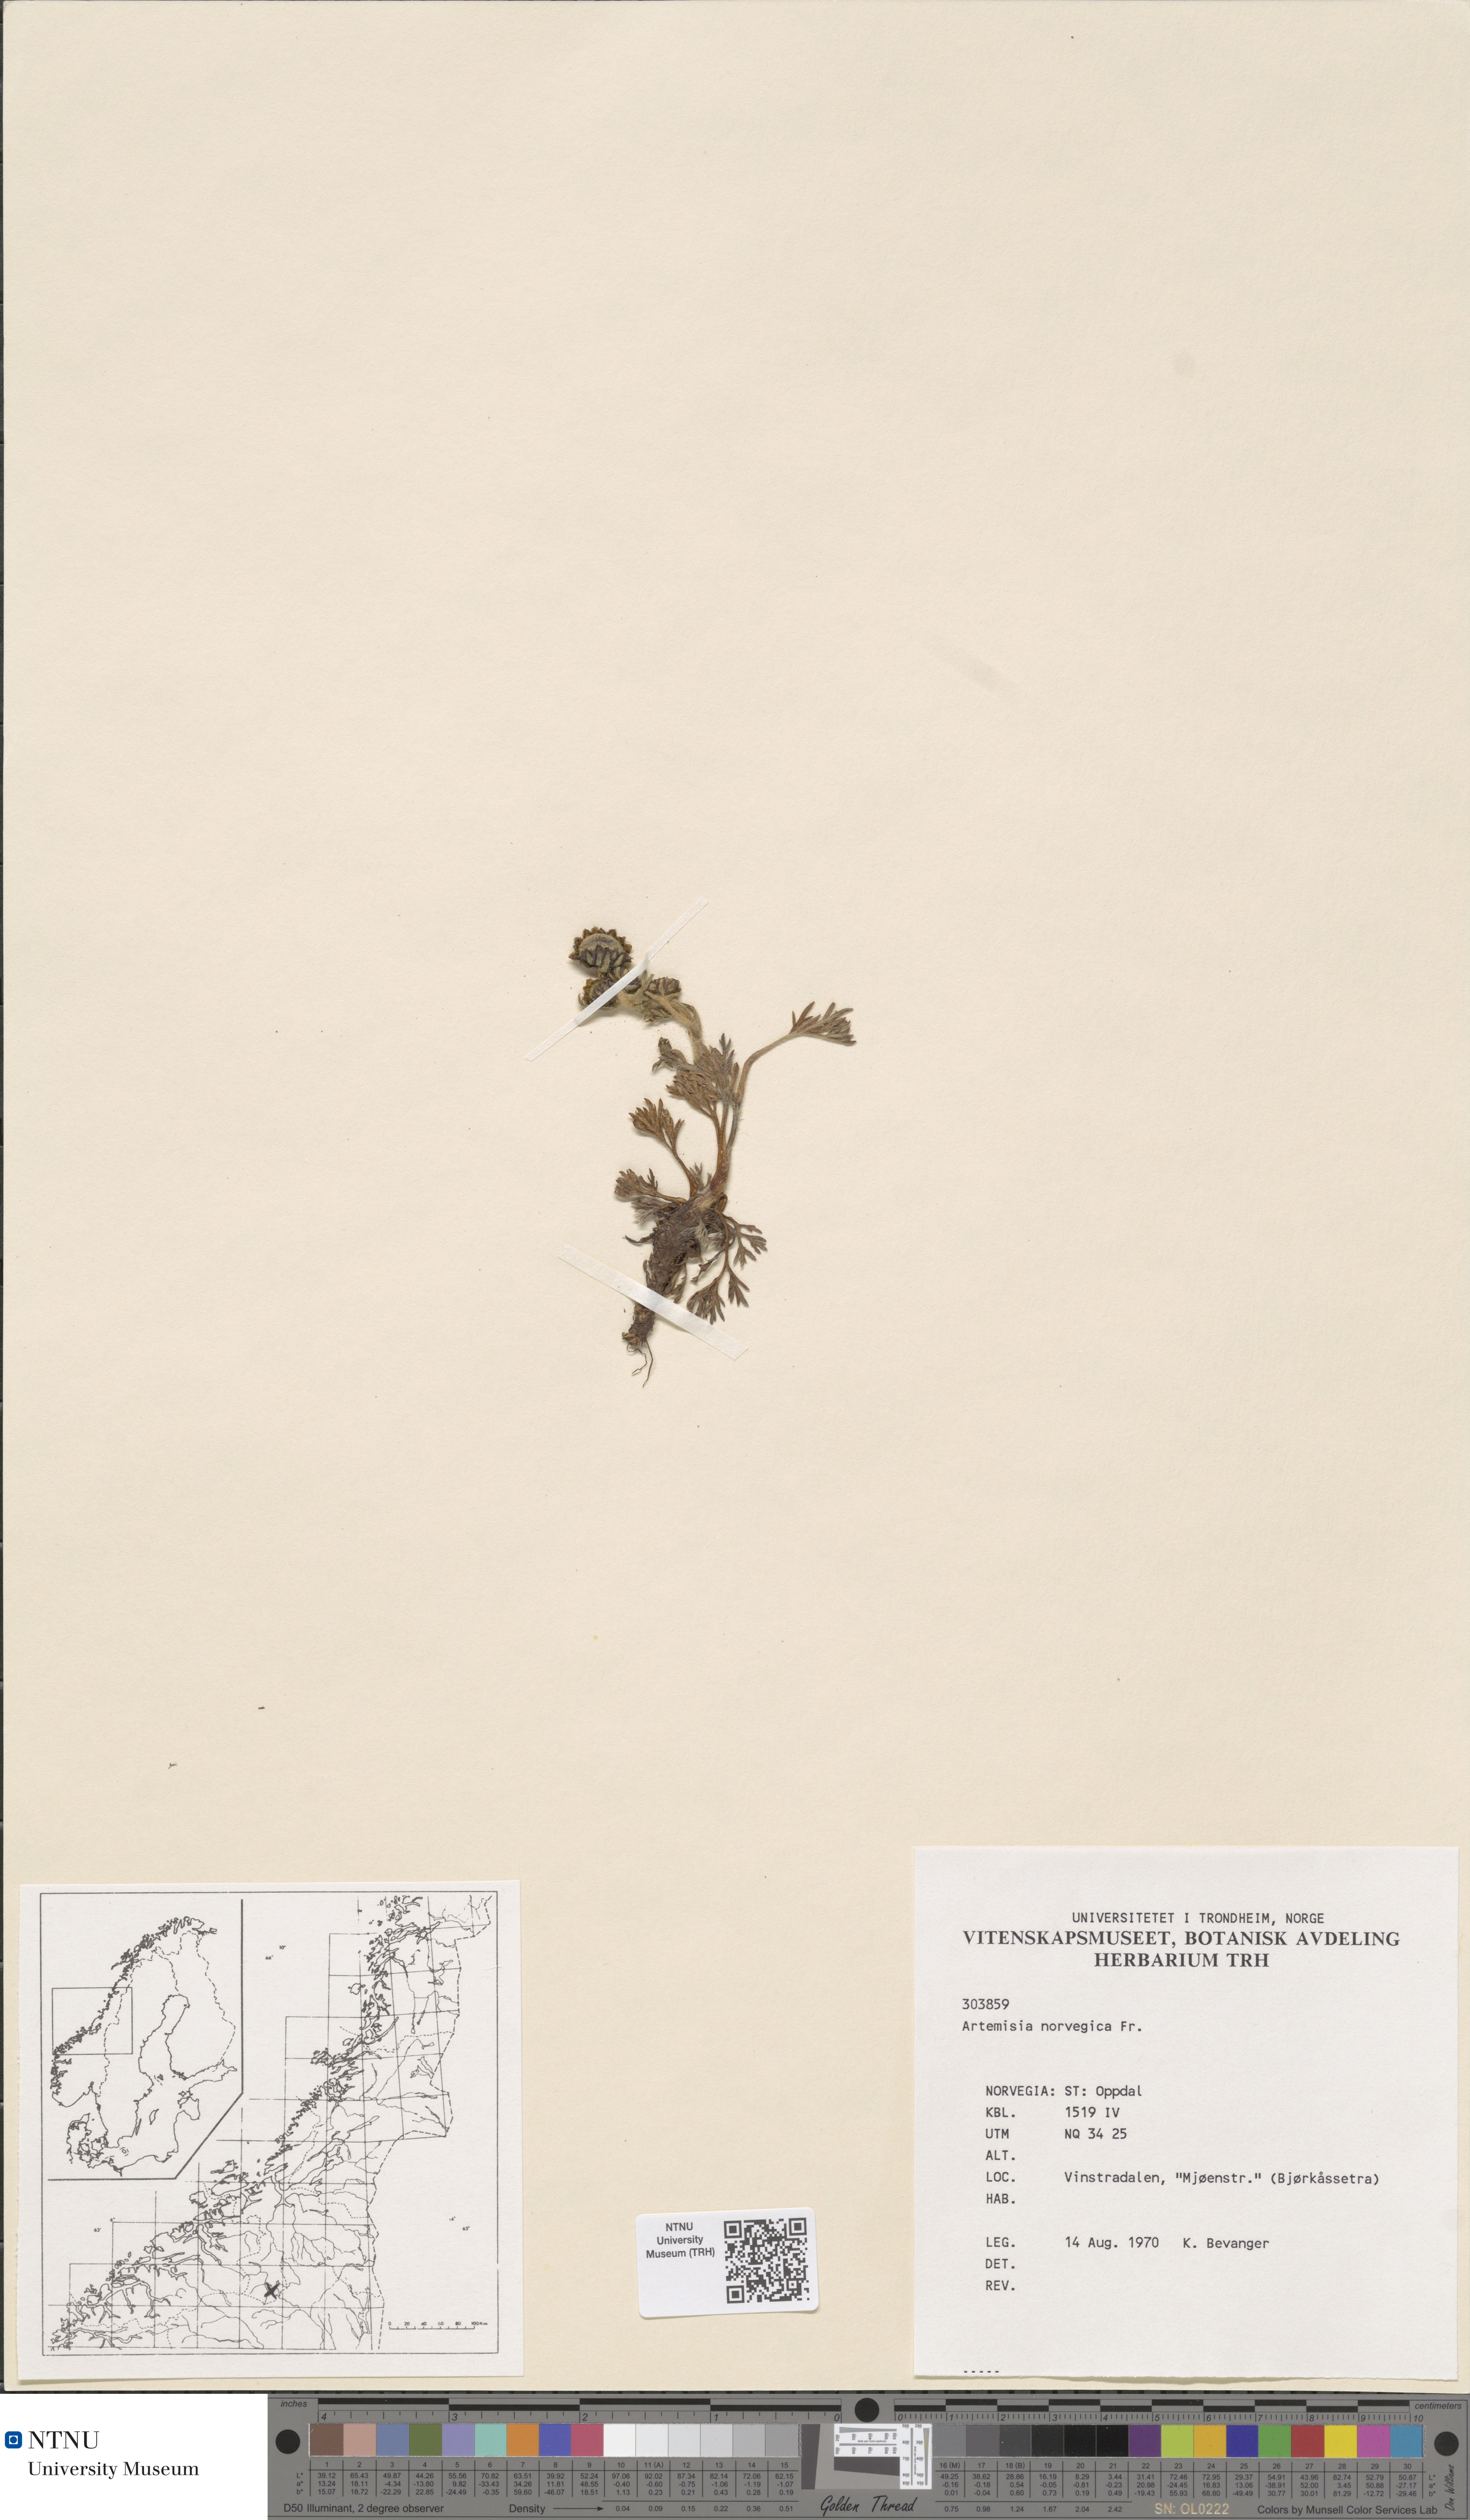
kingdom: Plantae
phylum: Tracheophyta
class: Magnoliopsida
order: Asterales
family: Asteraceae
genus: Artemisia
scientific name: Artemisia norvegica
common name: Norwegian mugwort
